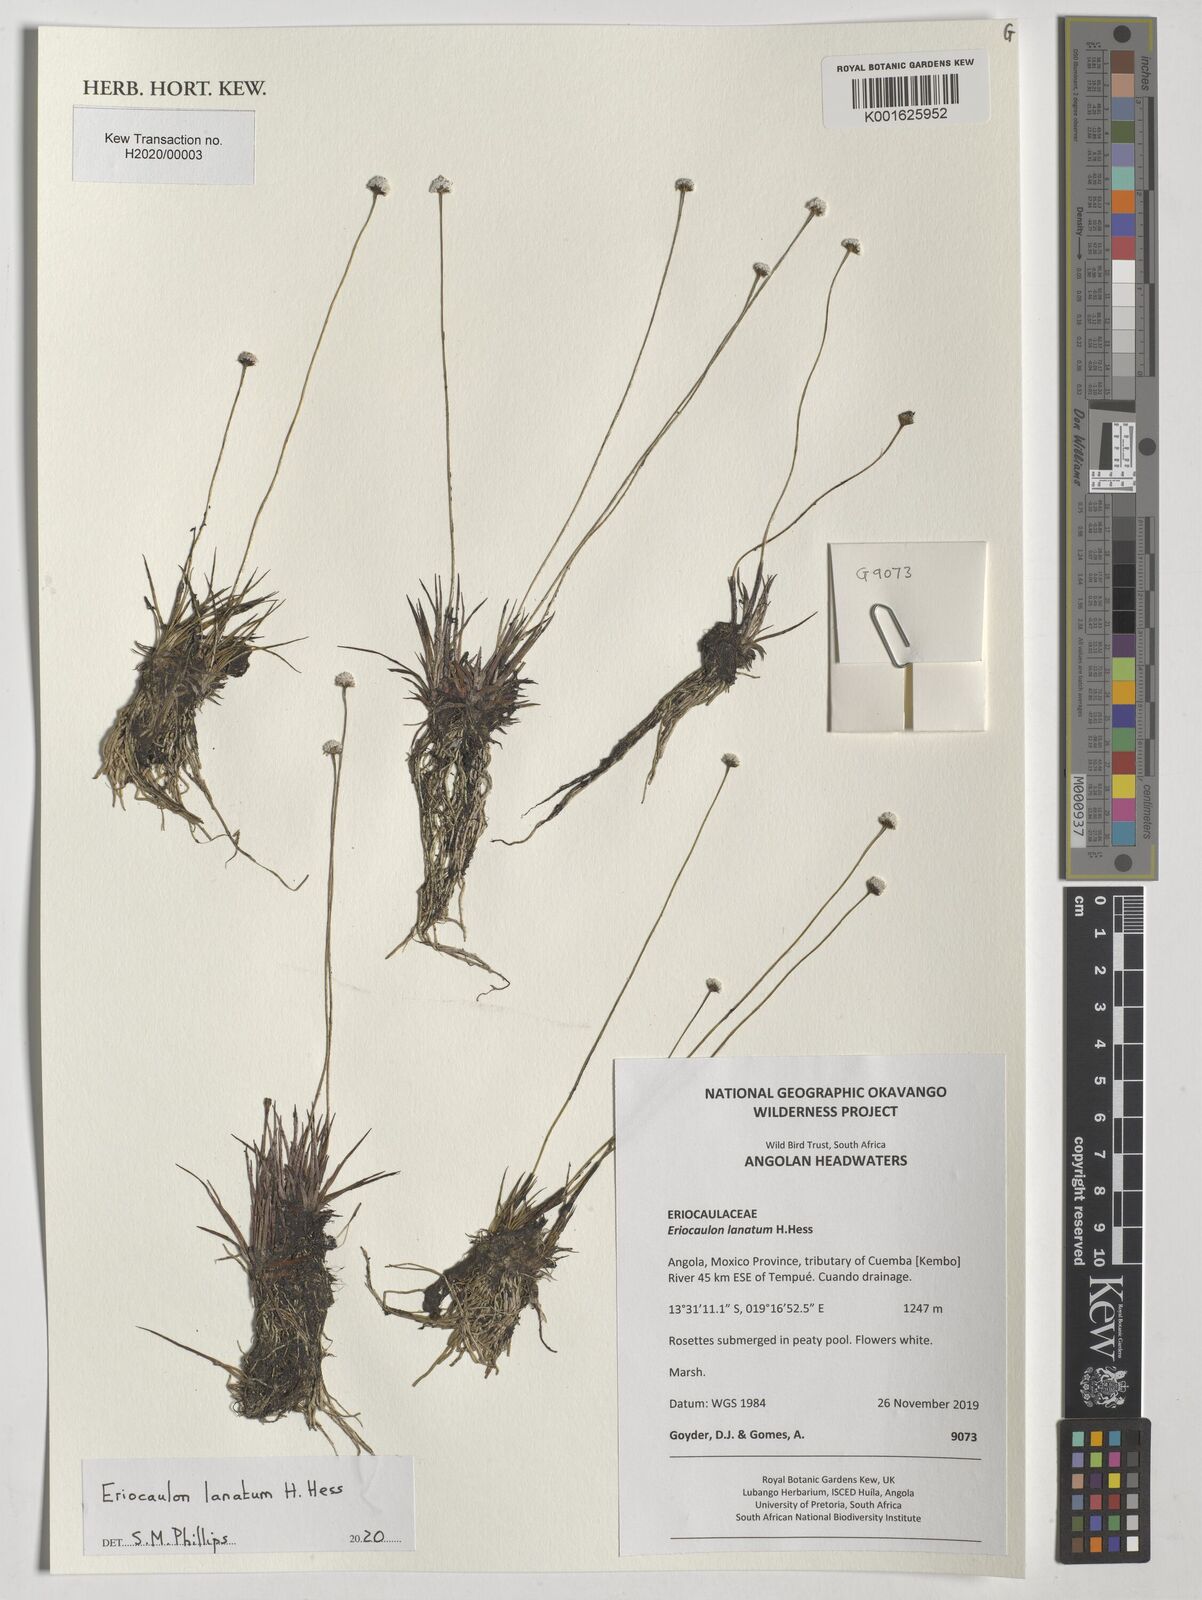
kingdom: Plantae
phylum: Tracheophyta
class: Liliopsida
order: Poales
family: Eriocaulaceae
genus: Eriocaulon
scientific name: Eriocaulon lanatum
